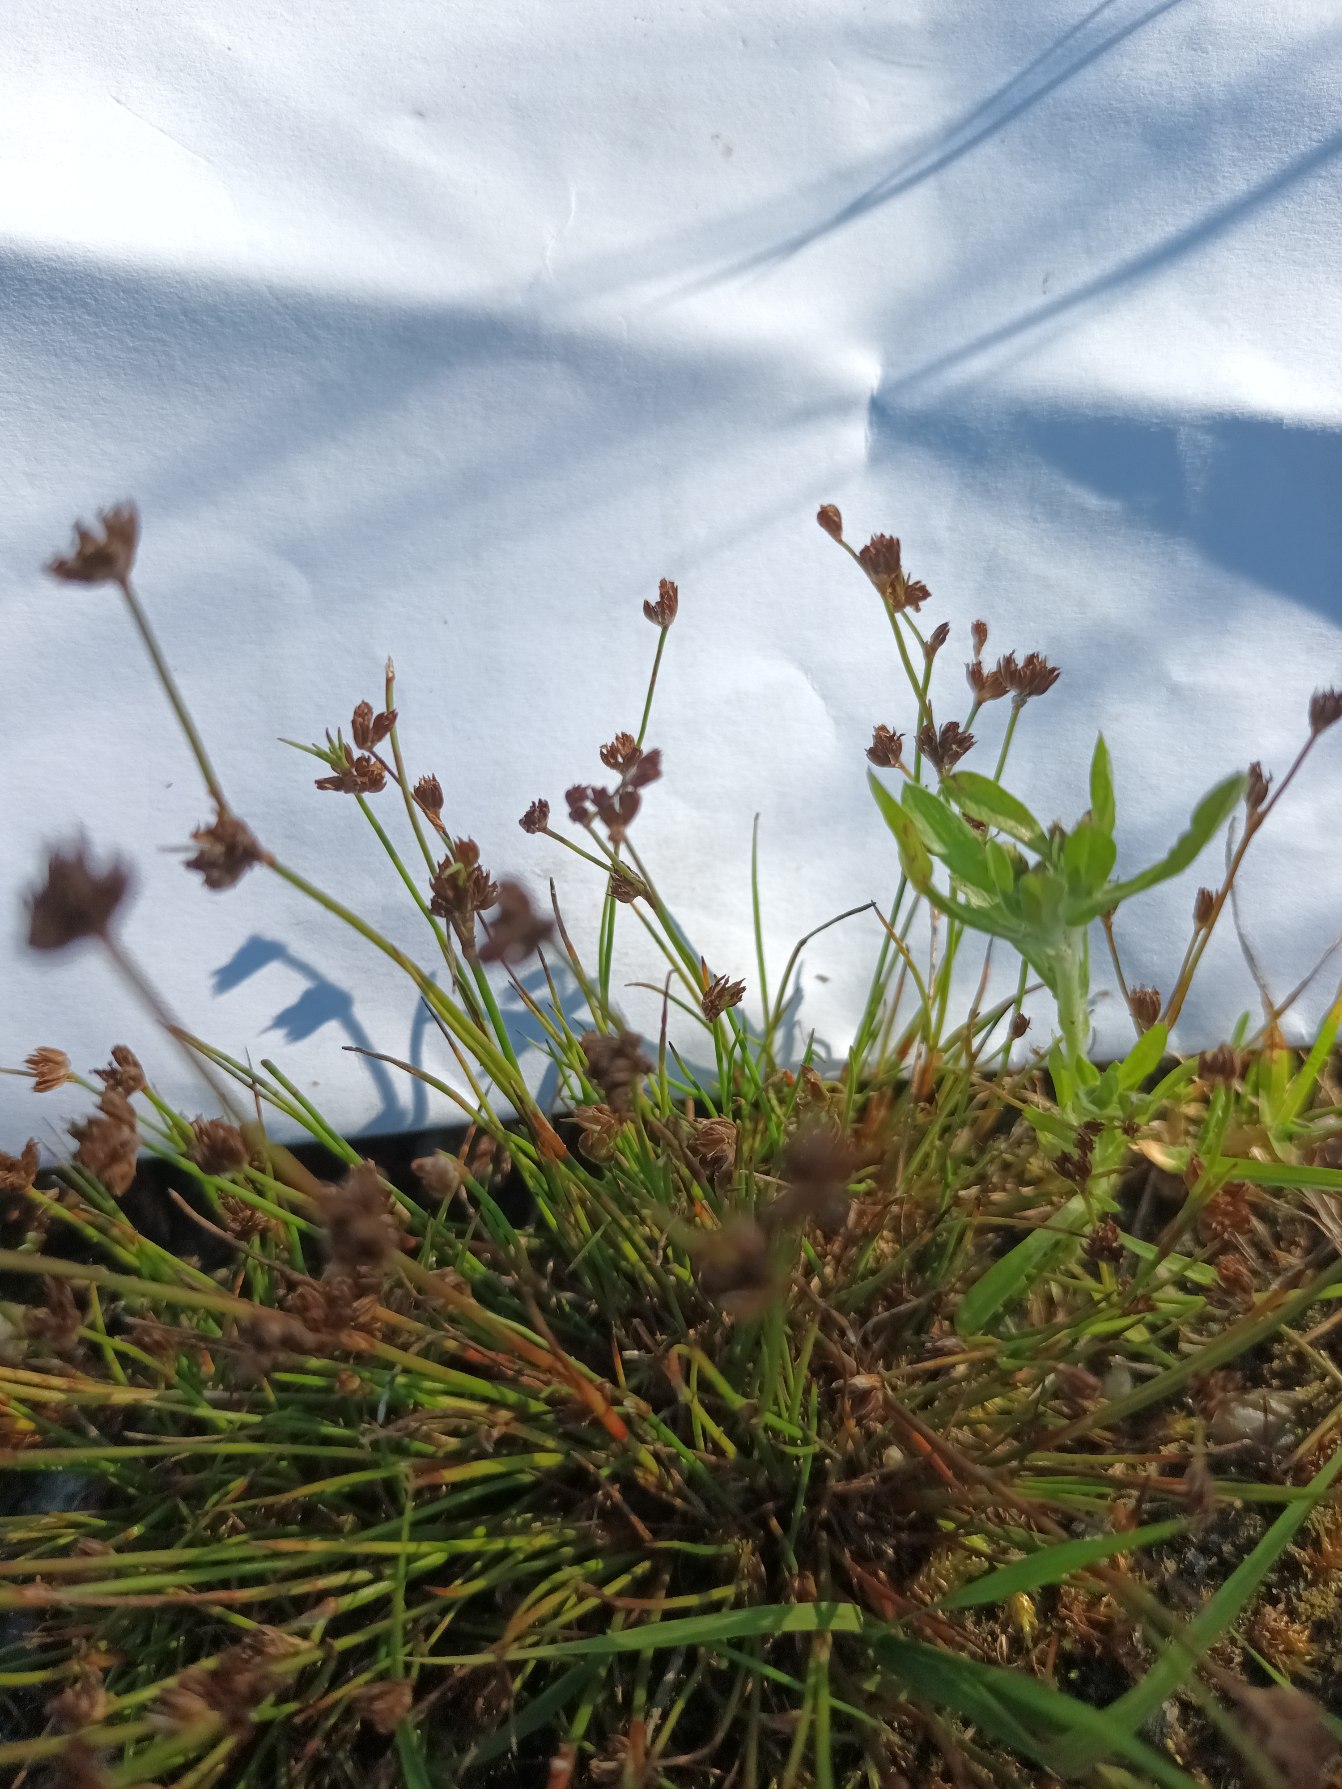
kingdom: Plantae
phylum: Tracheophyta
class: Liliopsida
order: Poales
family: Juncaceae
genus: Juncus
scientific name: Juncus ranarius
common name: Klæg-siv
